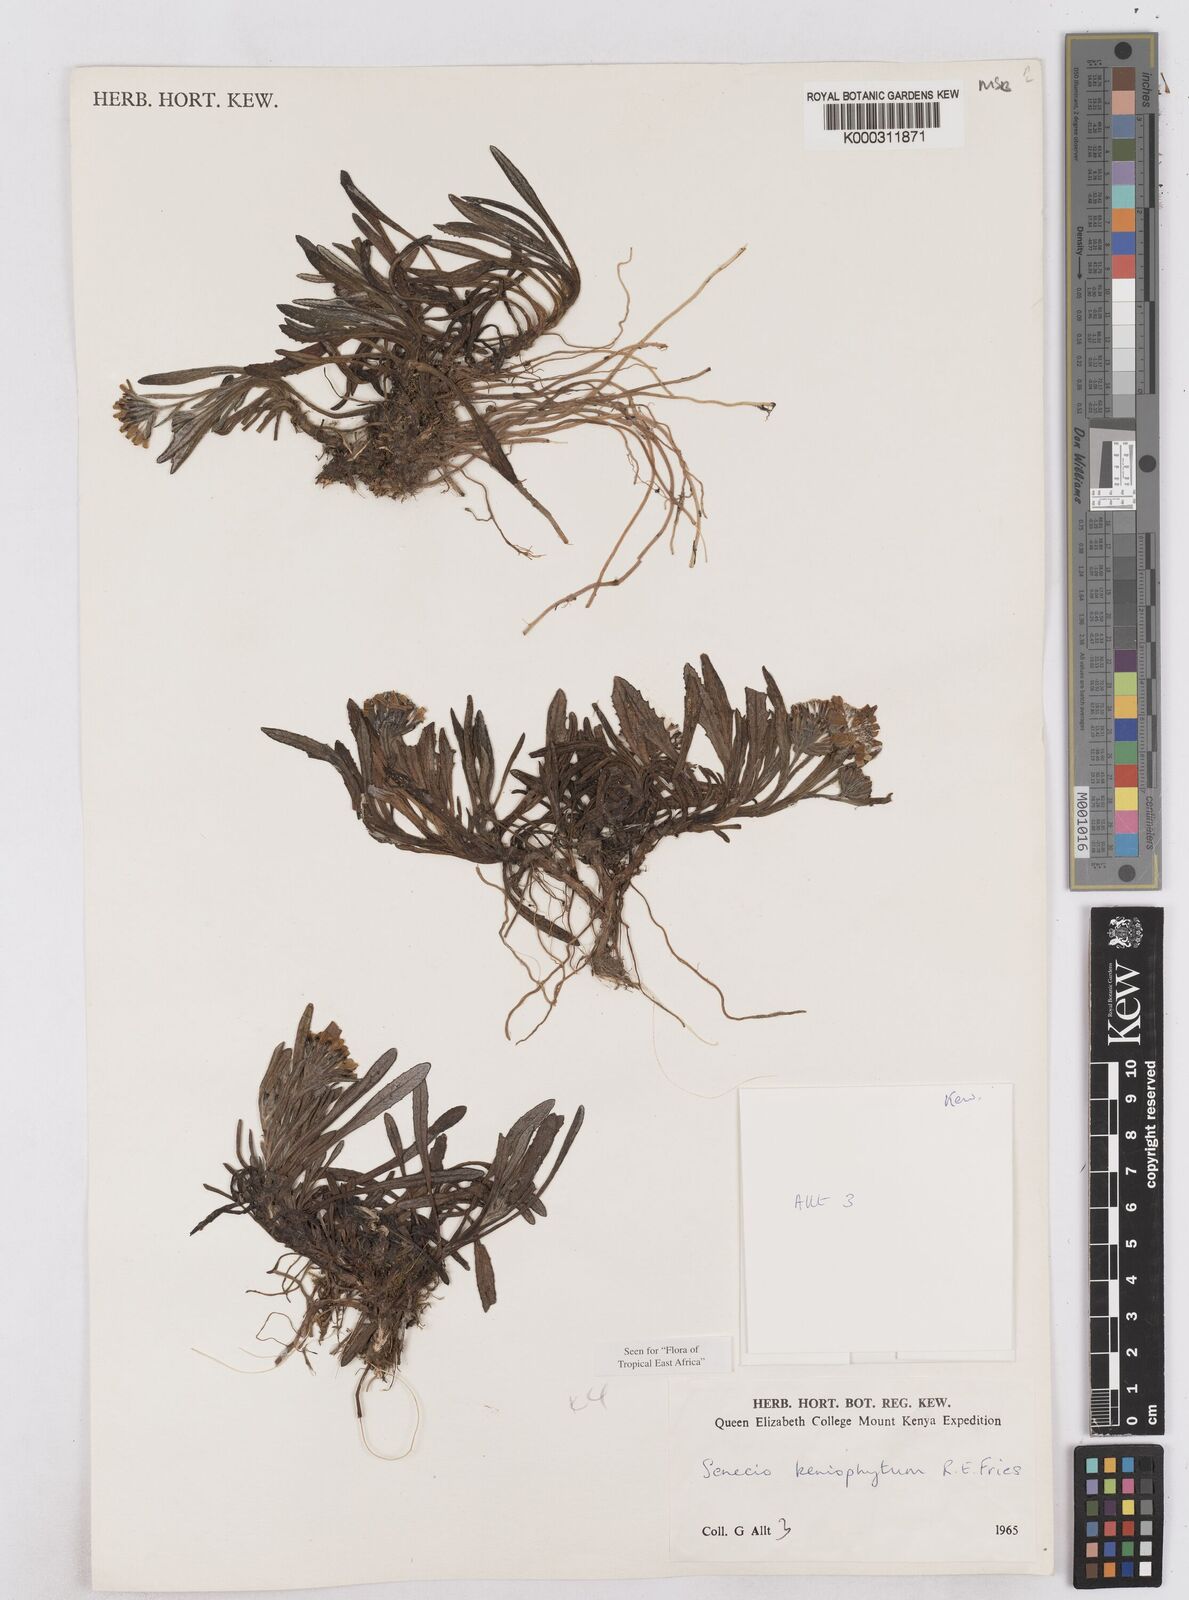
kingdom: Plantae
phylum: Tracheophyta
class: Magnoliopsida
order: Asterales
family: Asteraceae
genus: Senecio
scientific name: Senecio keniophytum
